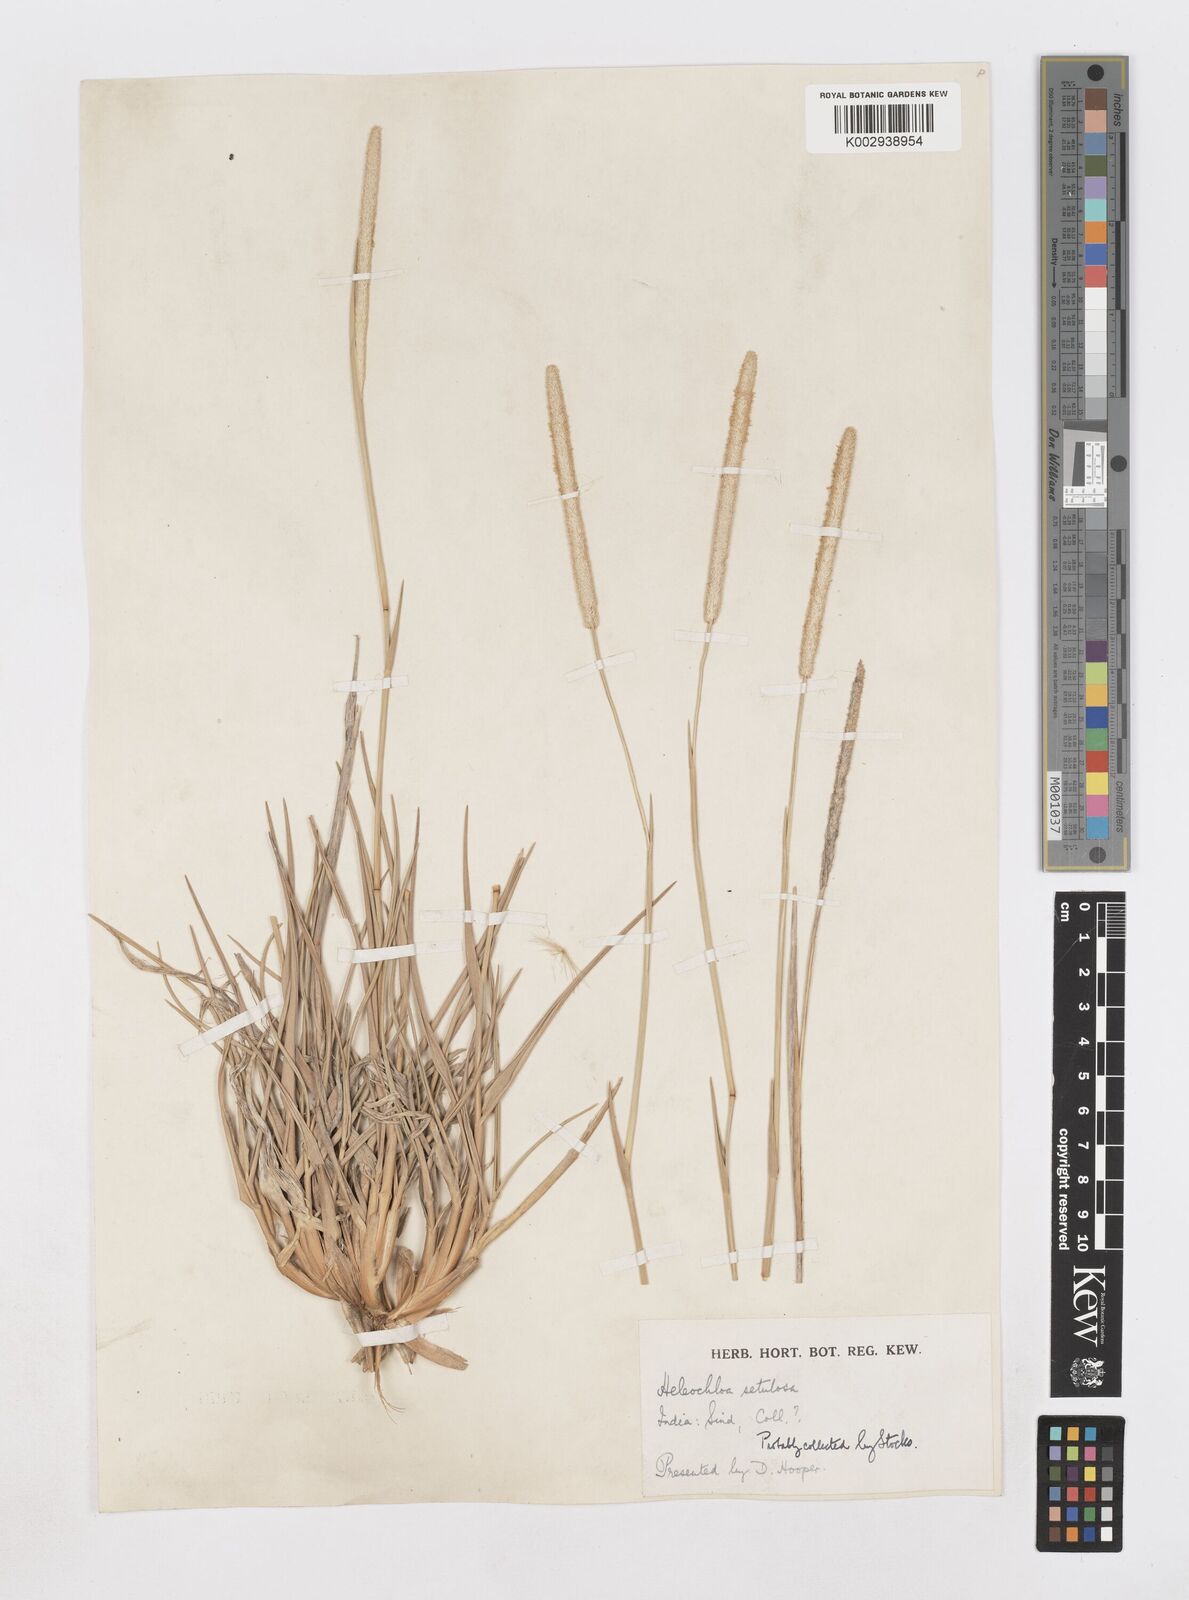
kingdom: Plantae
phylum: Tracheophyta
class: Liliopsida
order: Poales
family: Poaceae
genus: Urochondra
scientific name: Urochondra setulosa
